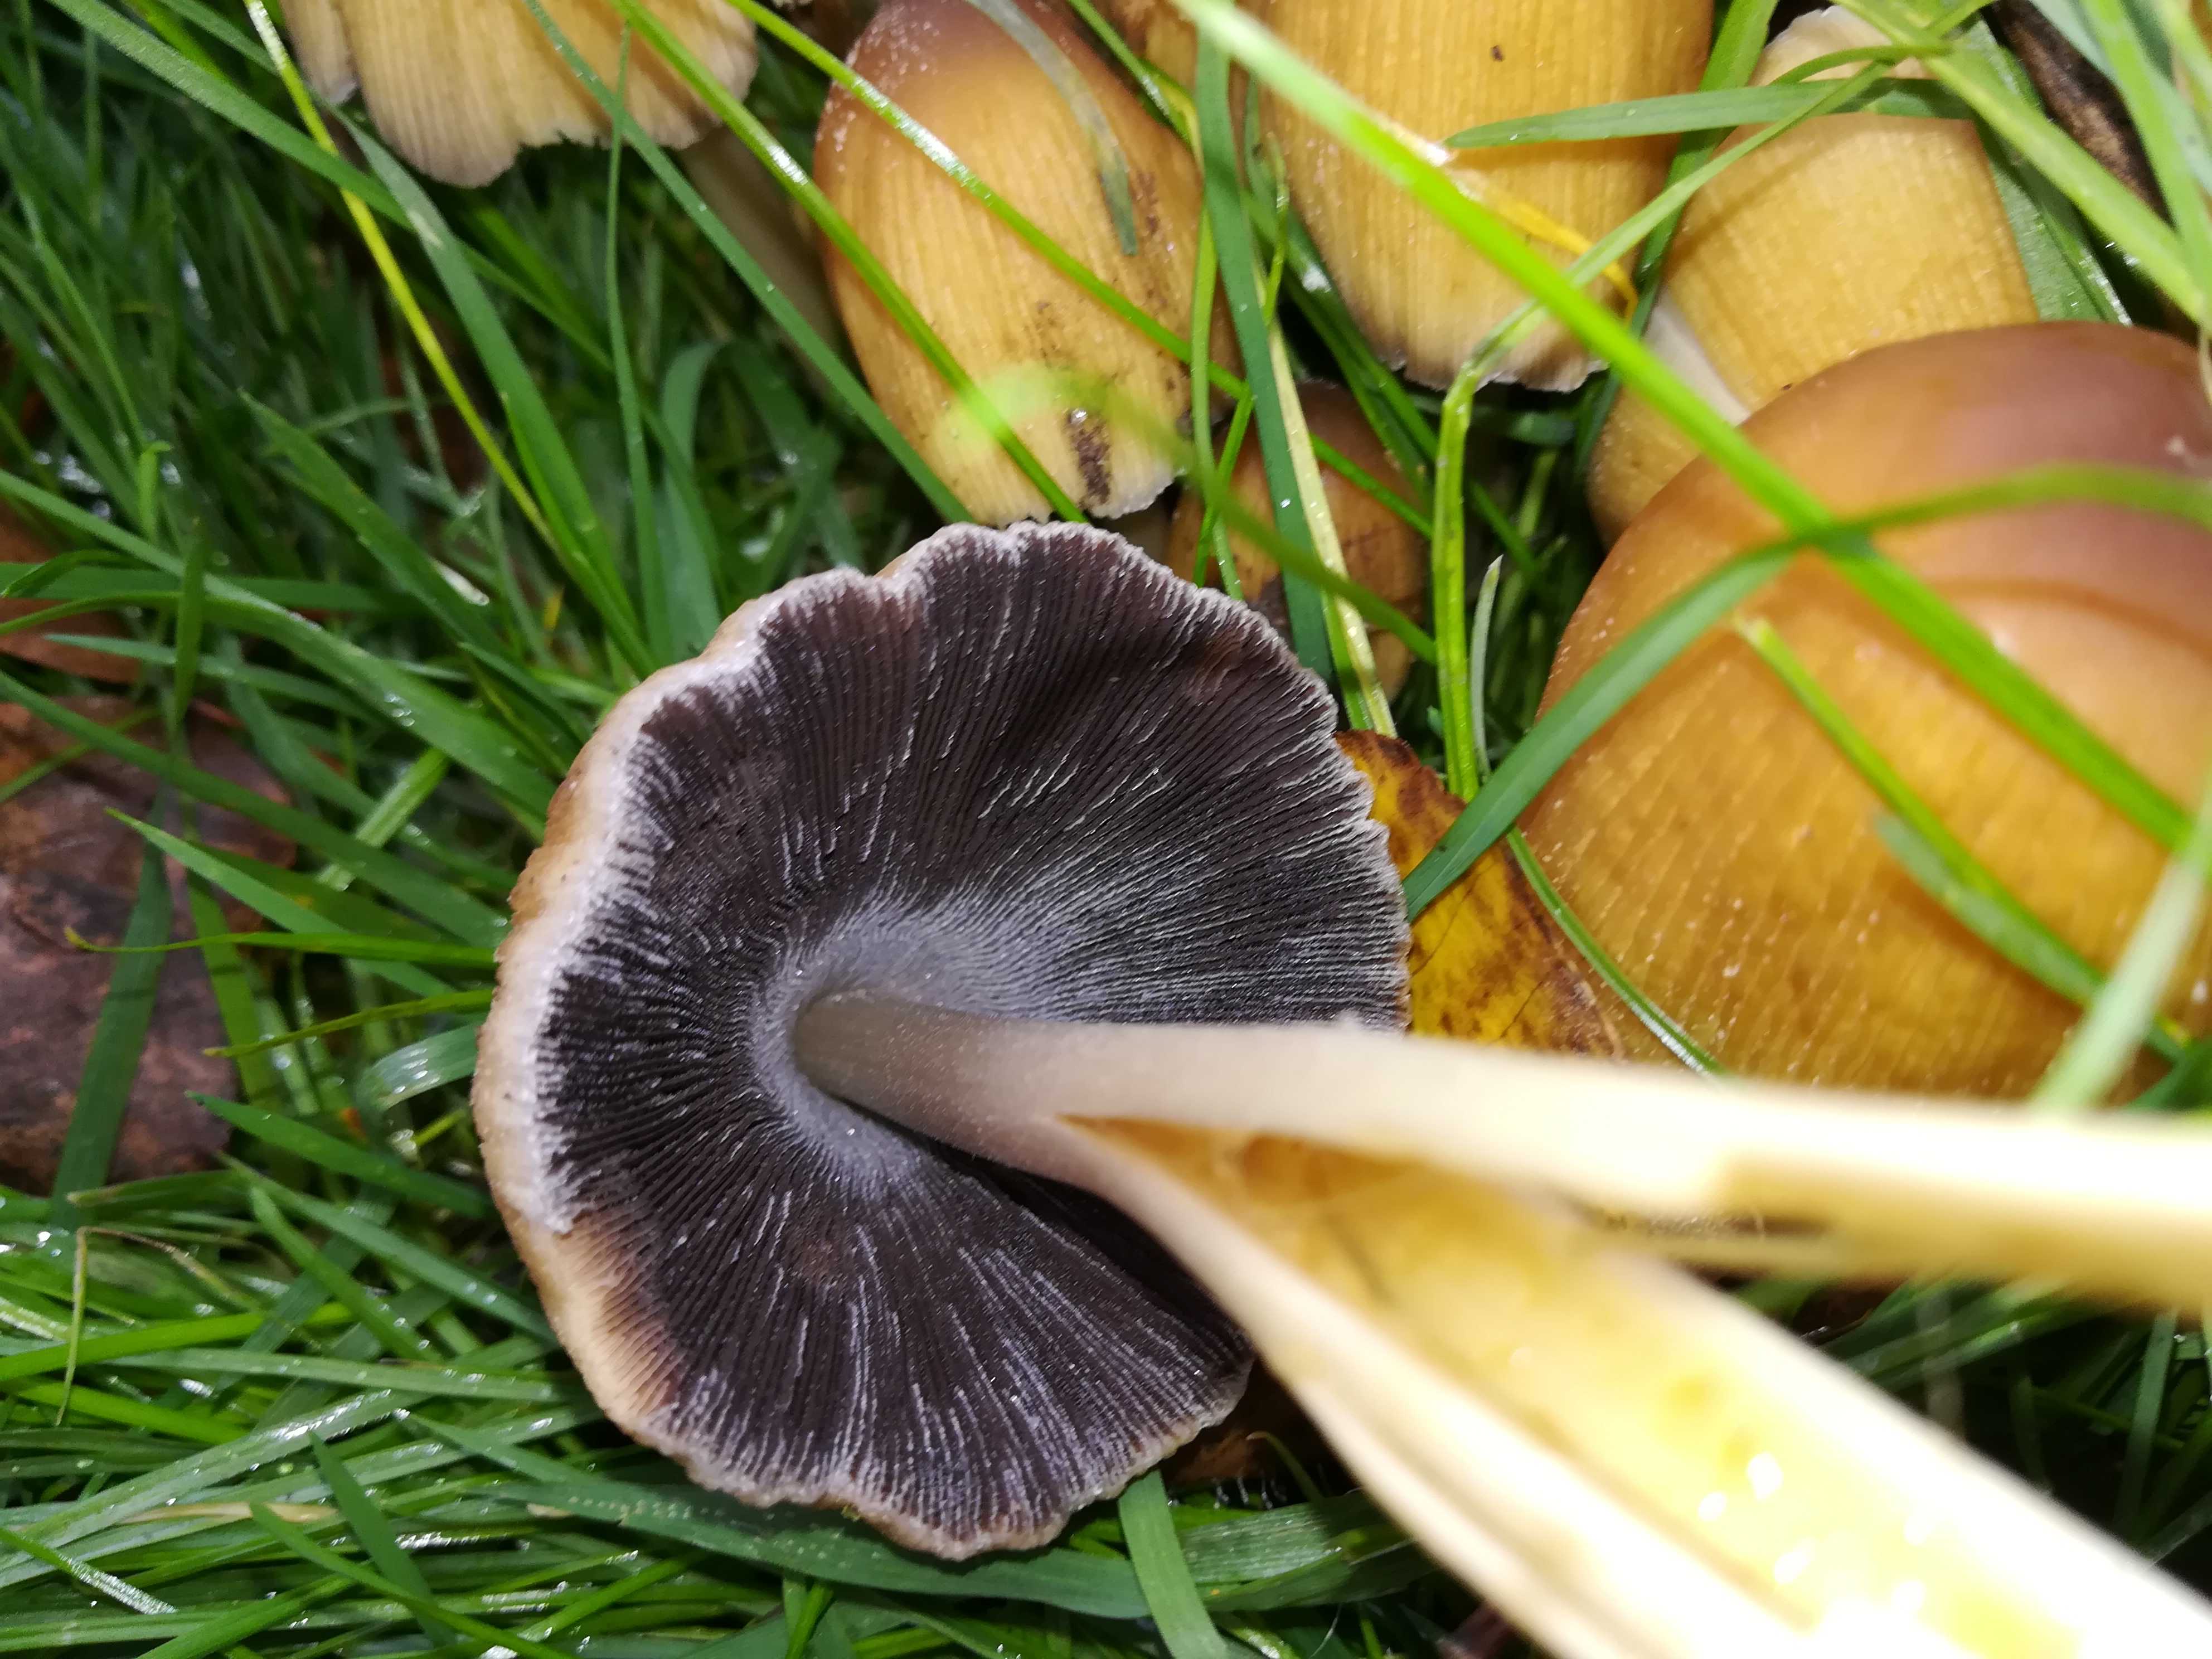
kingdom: Fungi
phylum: Basidiomycota
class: Agaricomycetes
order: Agaricales
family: Psathyrellaceae
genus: Coprinellus
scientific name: Coprinellus micaceus
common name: glimmer-blækhat
